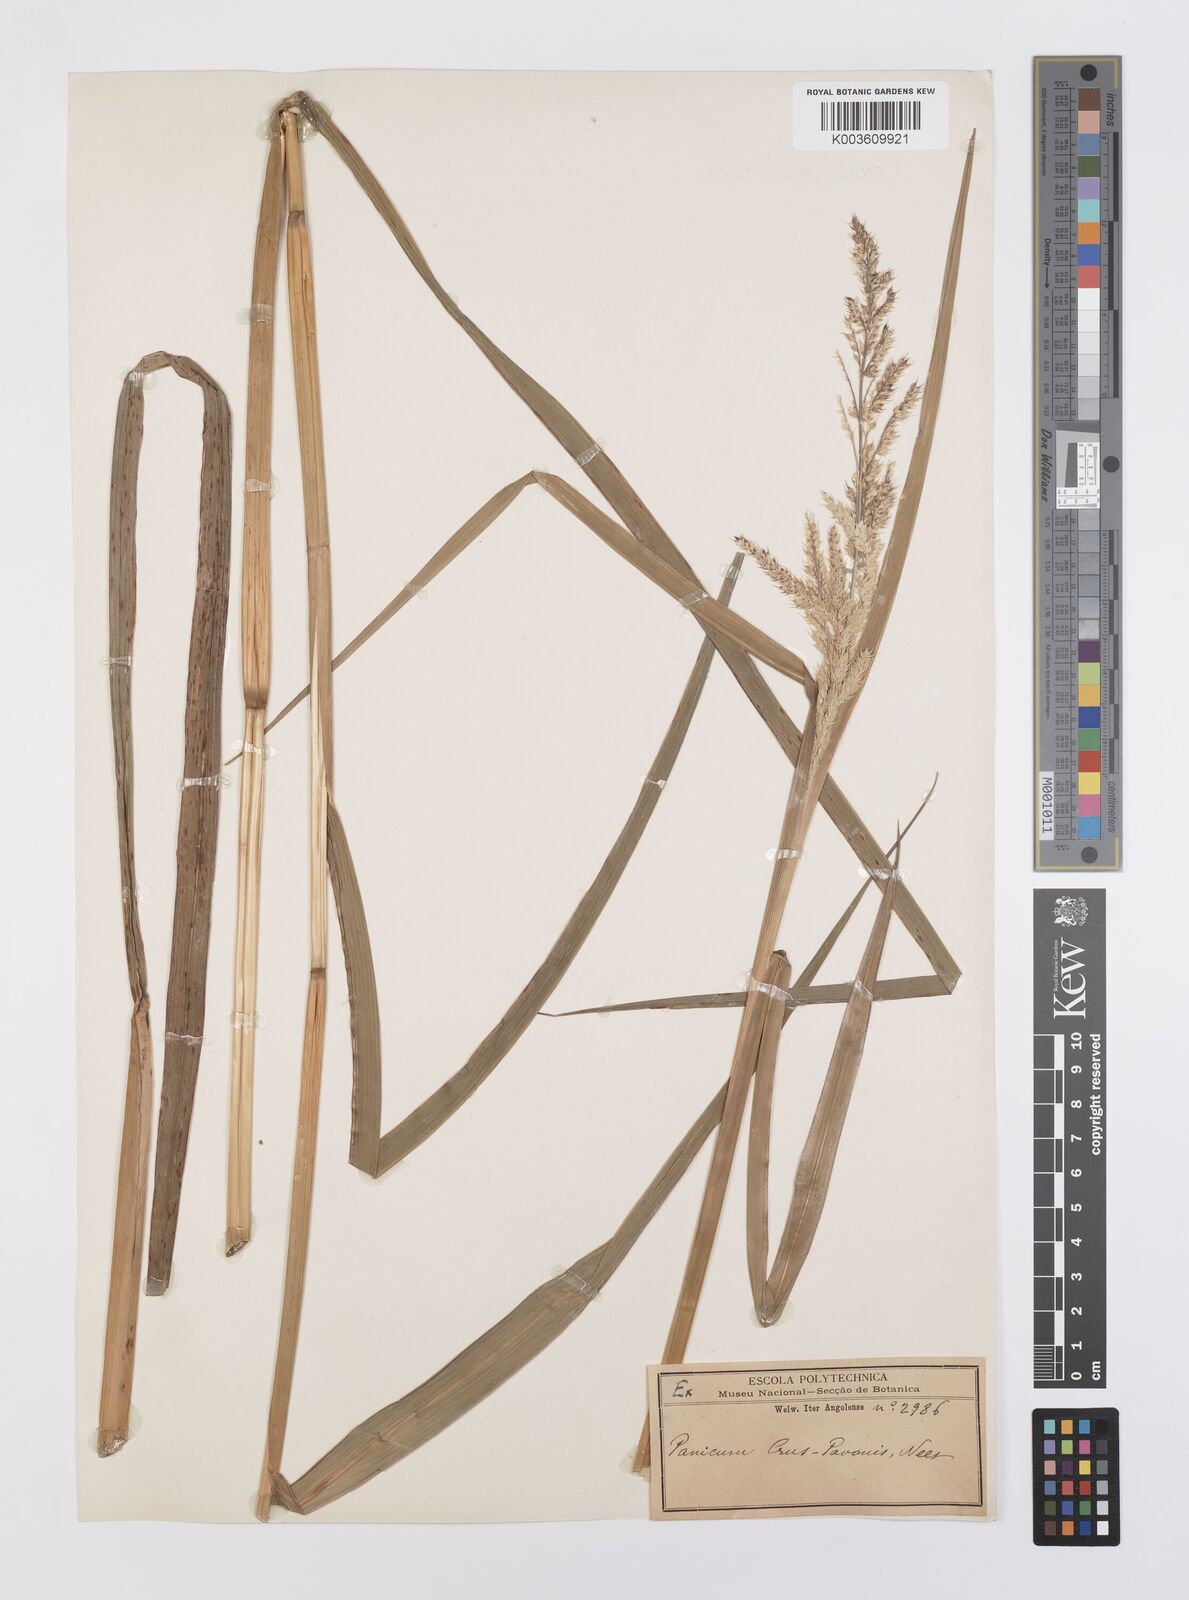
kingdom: Plantae
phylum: Tracheophyta
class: Liliopsida
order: Poales
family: Poaceae
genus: Echinochloa
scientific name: Echinochloa crus-pavonis
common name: Gulf cockspur grass
